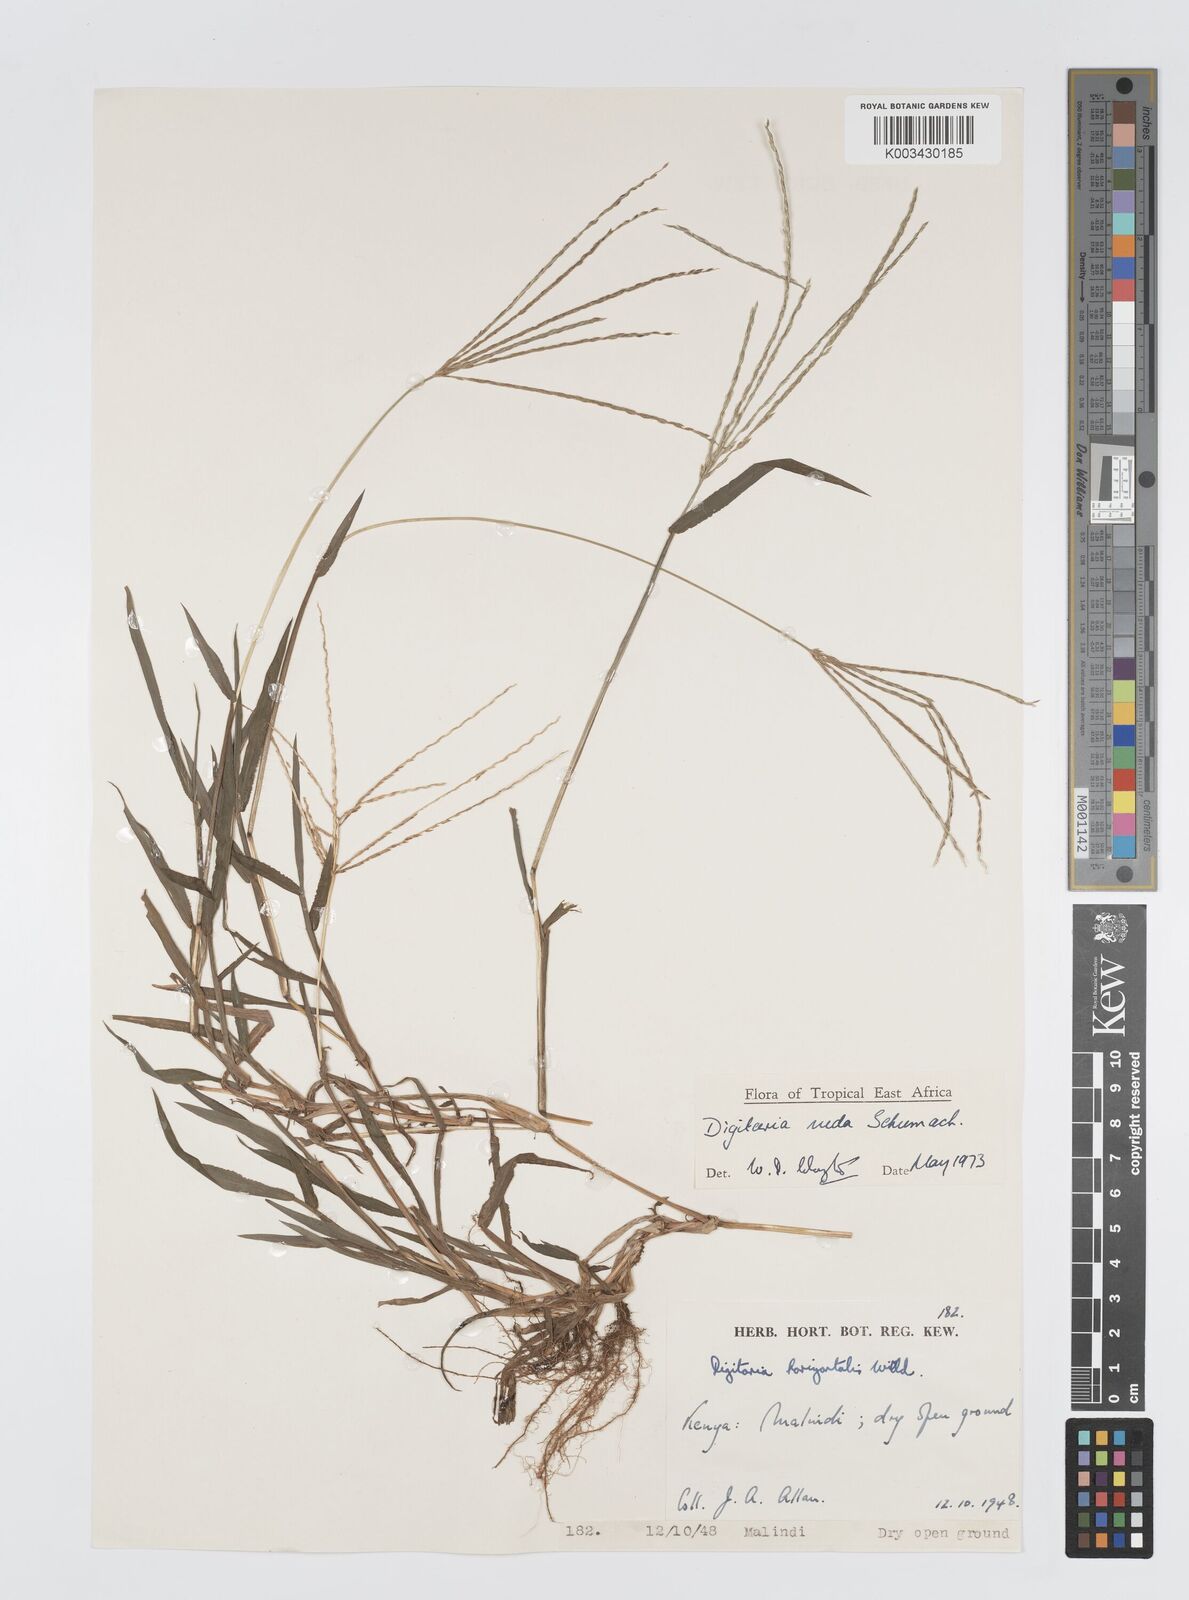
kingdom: Plantae
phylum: Tracheophyta
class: Liliopsida
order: Poales
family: Poaceae
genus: Digitaria
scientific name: Digitaria nuda
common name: Naked crabgrass
